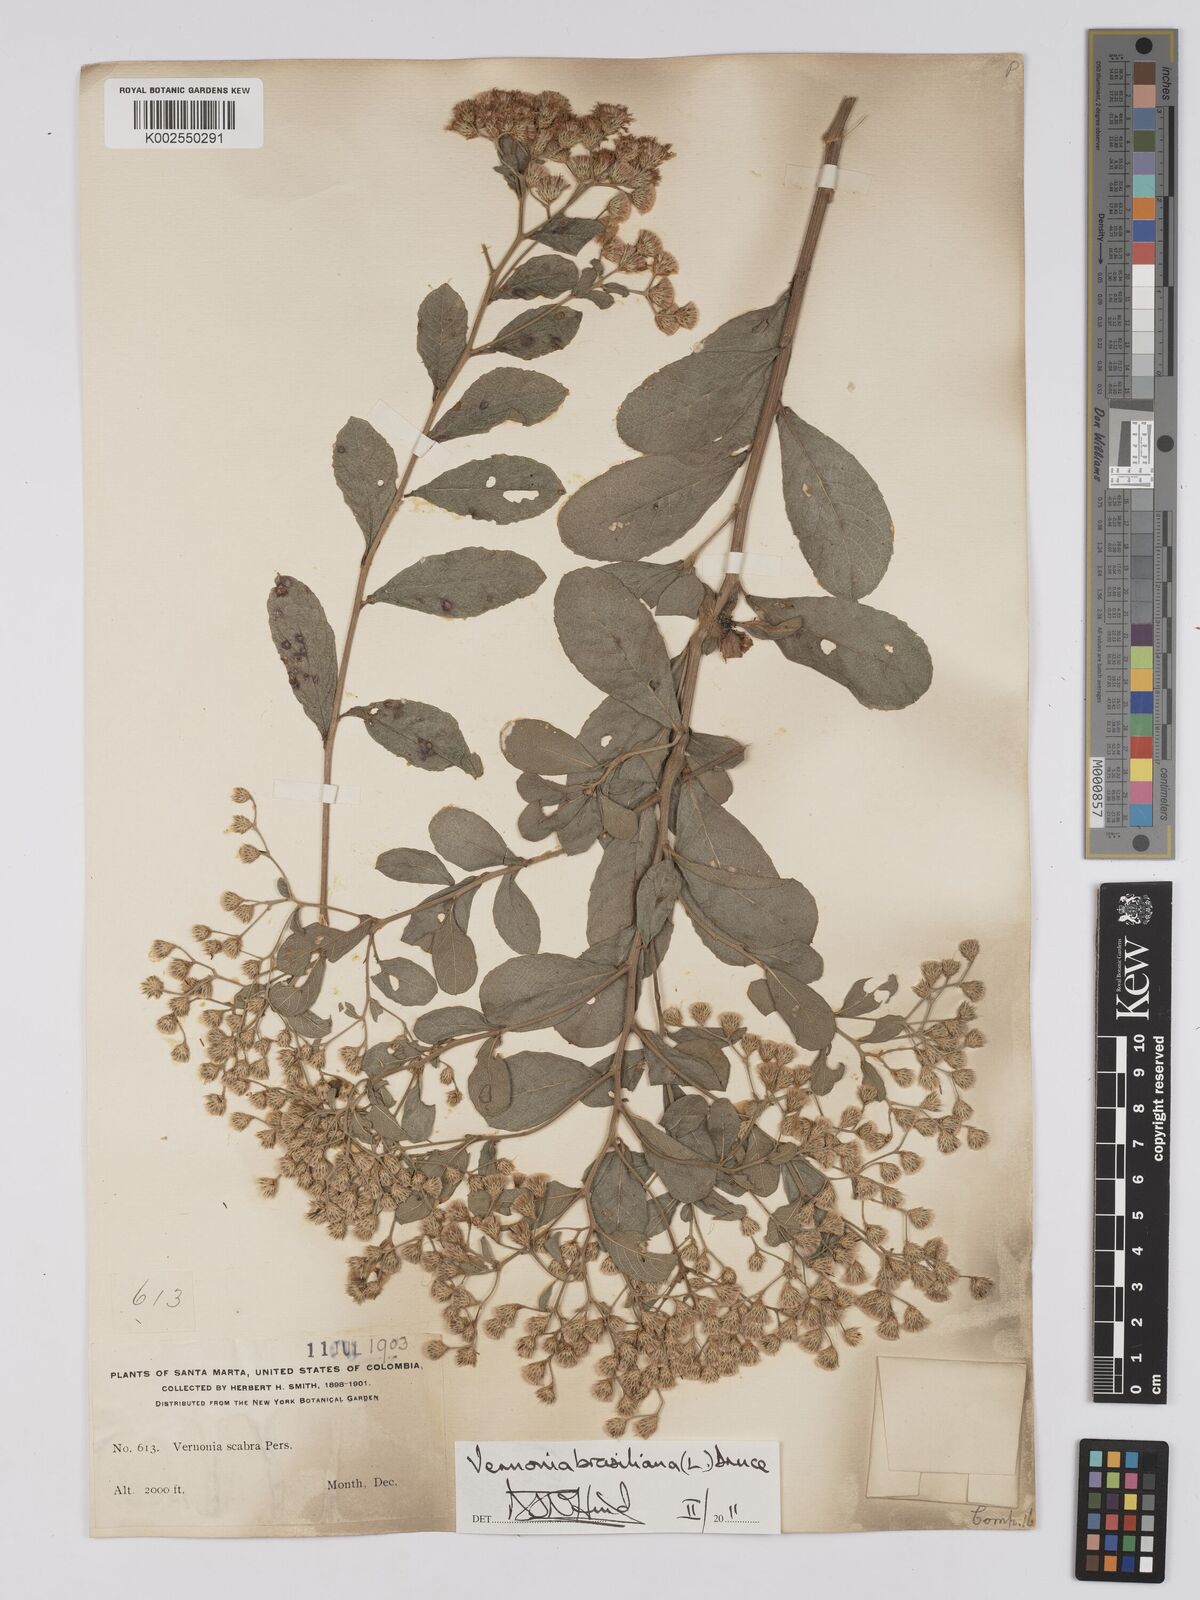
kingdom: Plantae
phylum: Tracheophyta
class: Magnoliopsida
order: Asterales
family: Asteraceae
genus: Vernonanthura
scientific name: Vernonanthura brasiliana
